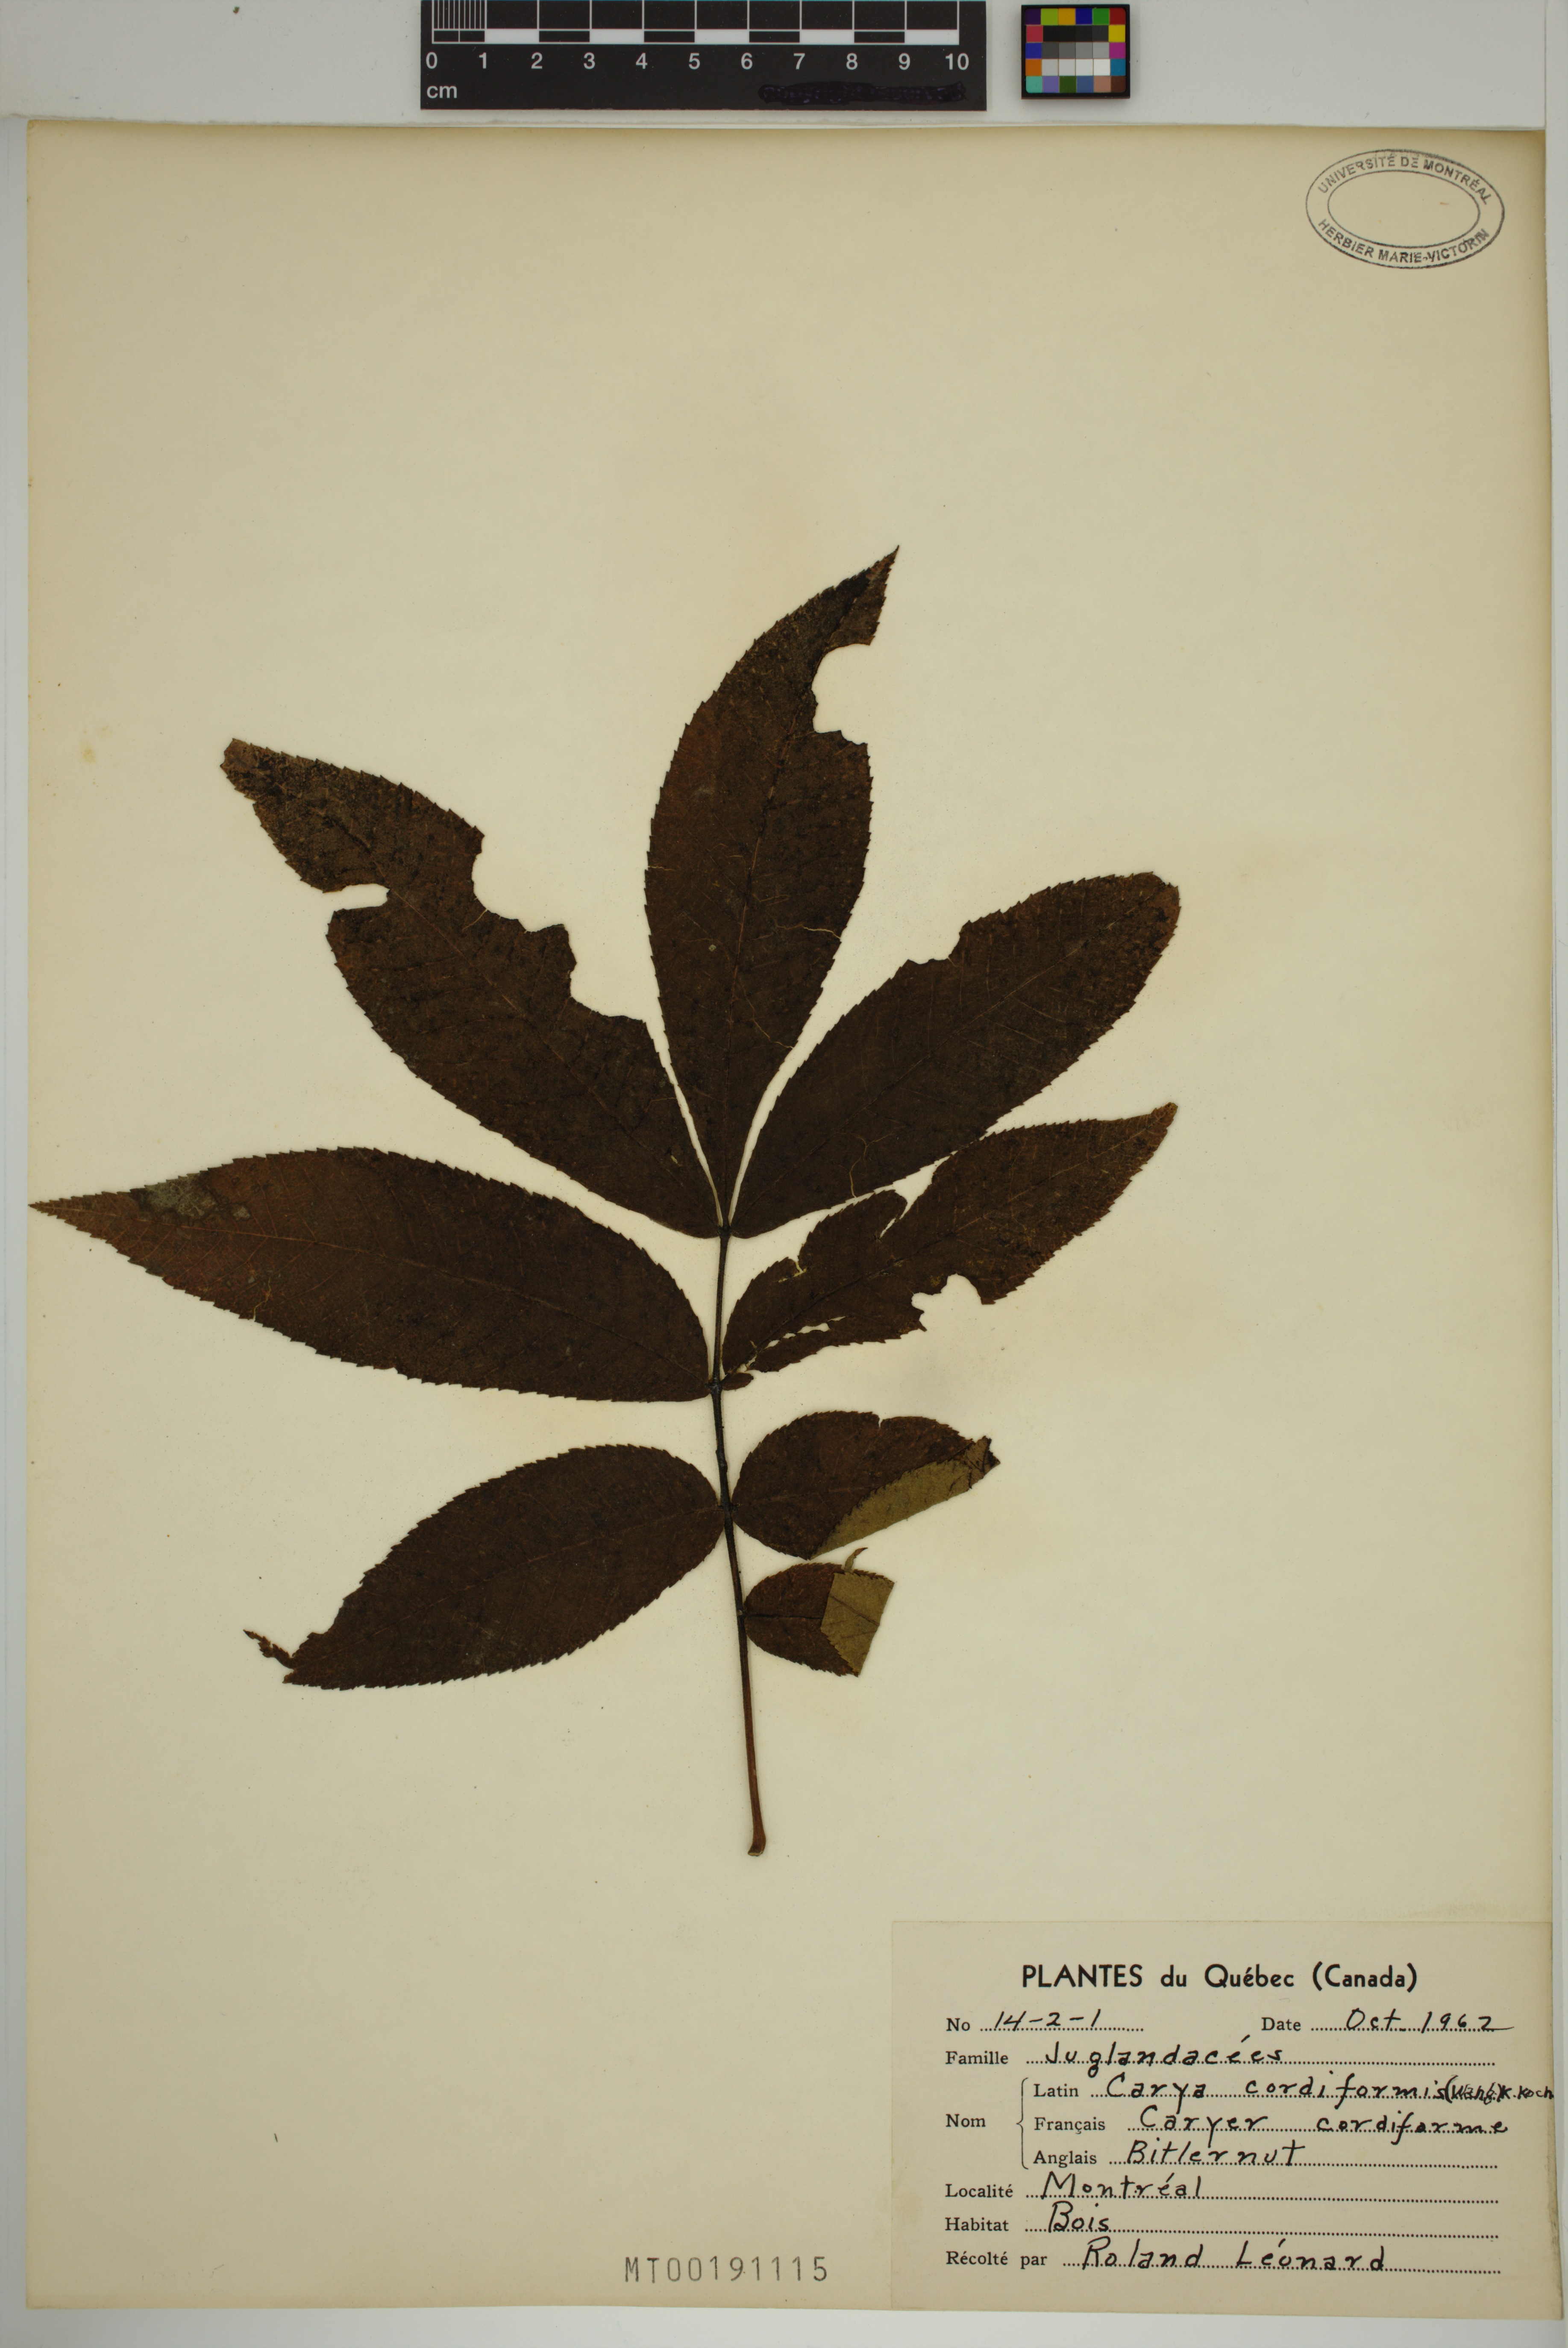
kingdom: Plantae
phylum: Tracheophyta
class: Magnoliopsida
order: Fagales
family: Juglandaceae
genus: Carya
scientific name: Carya cordiformis
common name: Bitternut hickory
